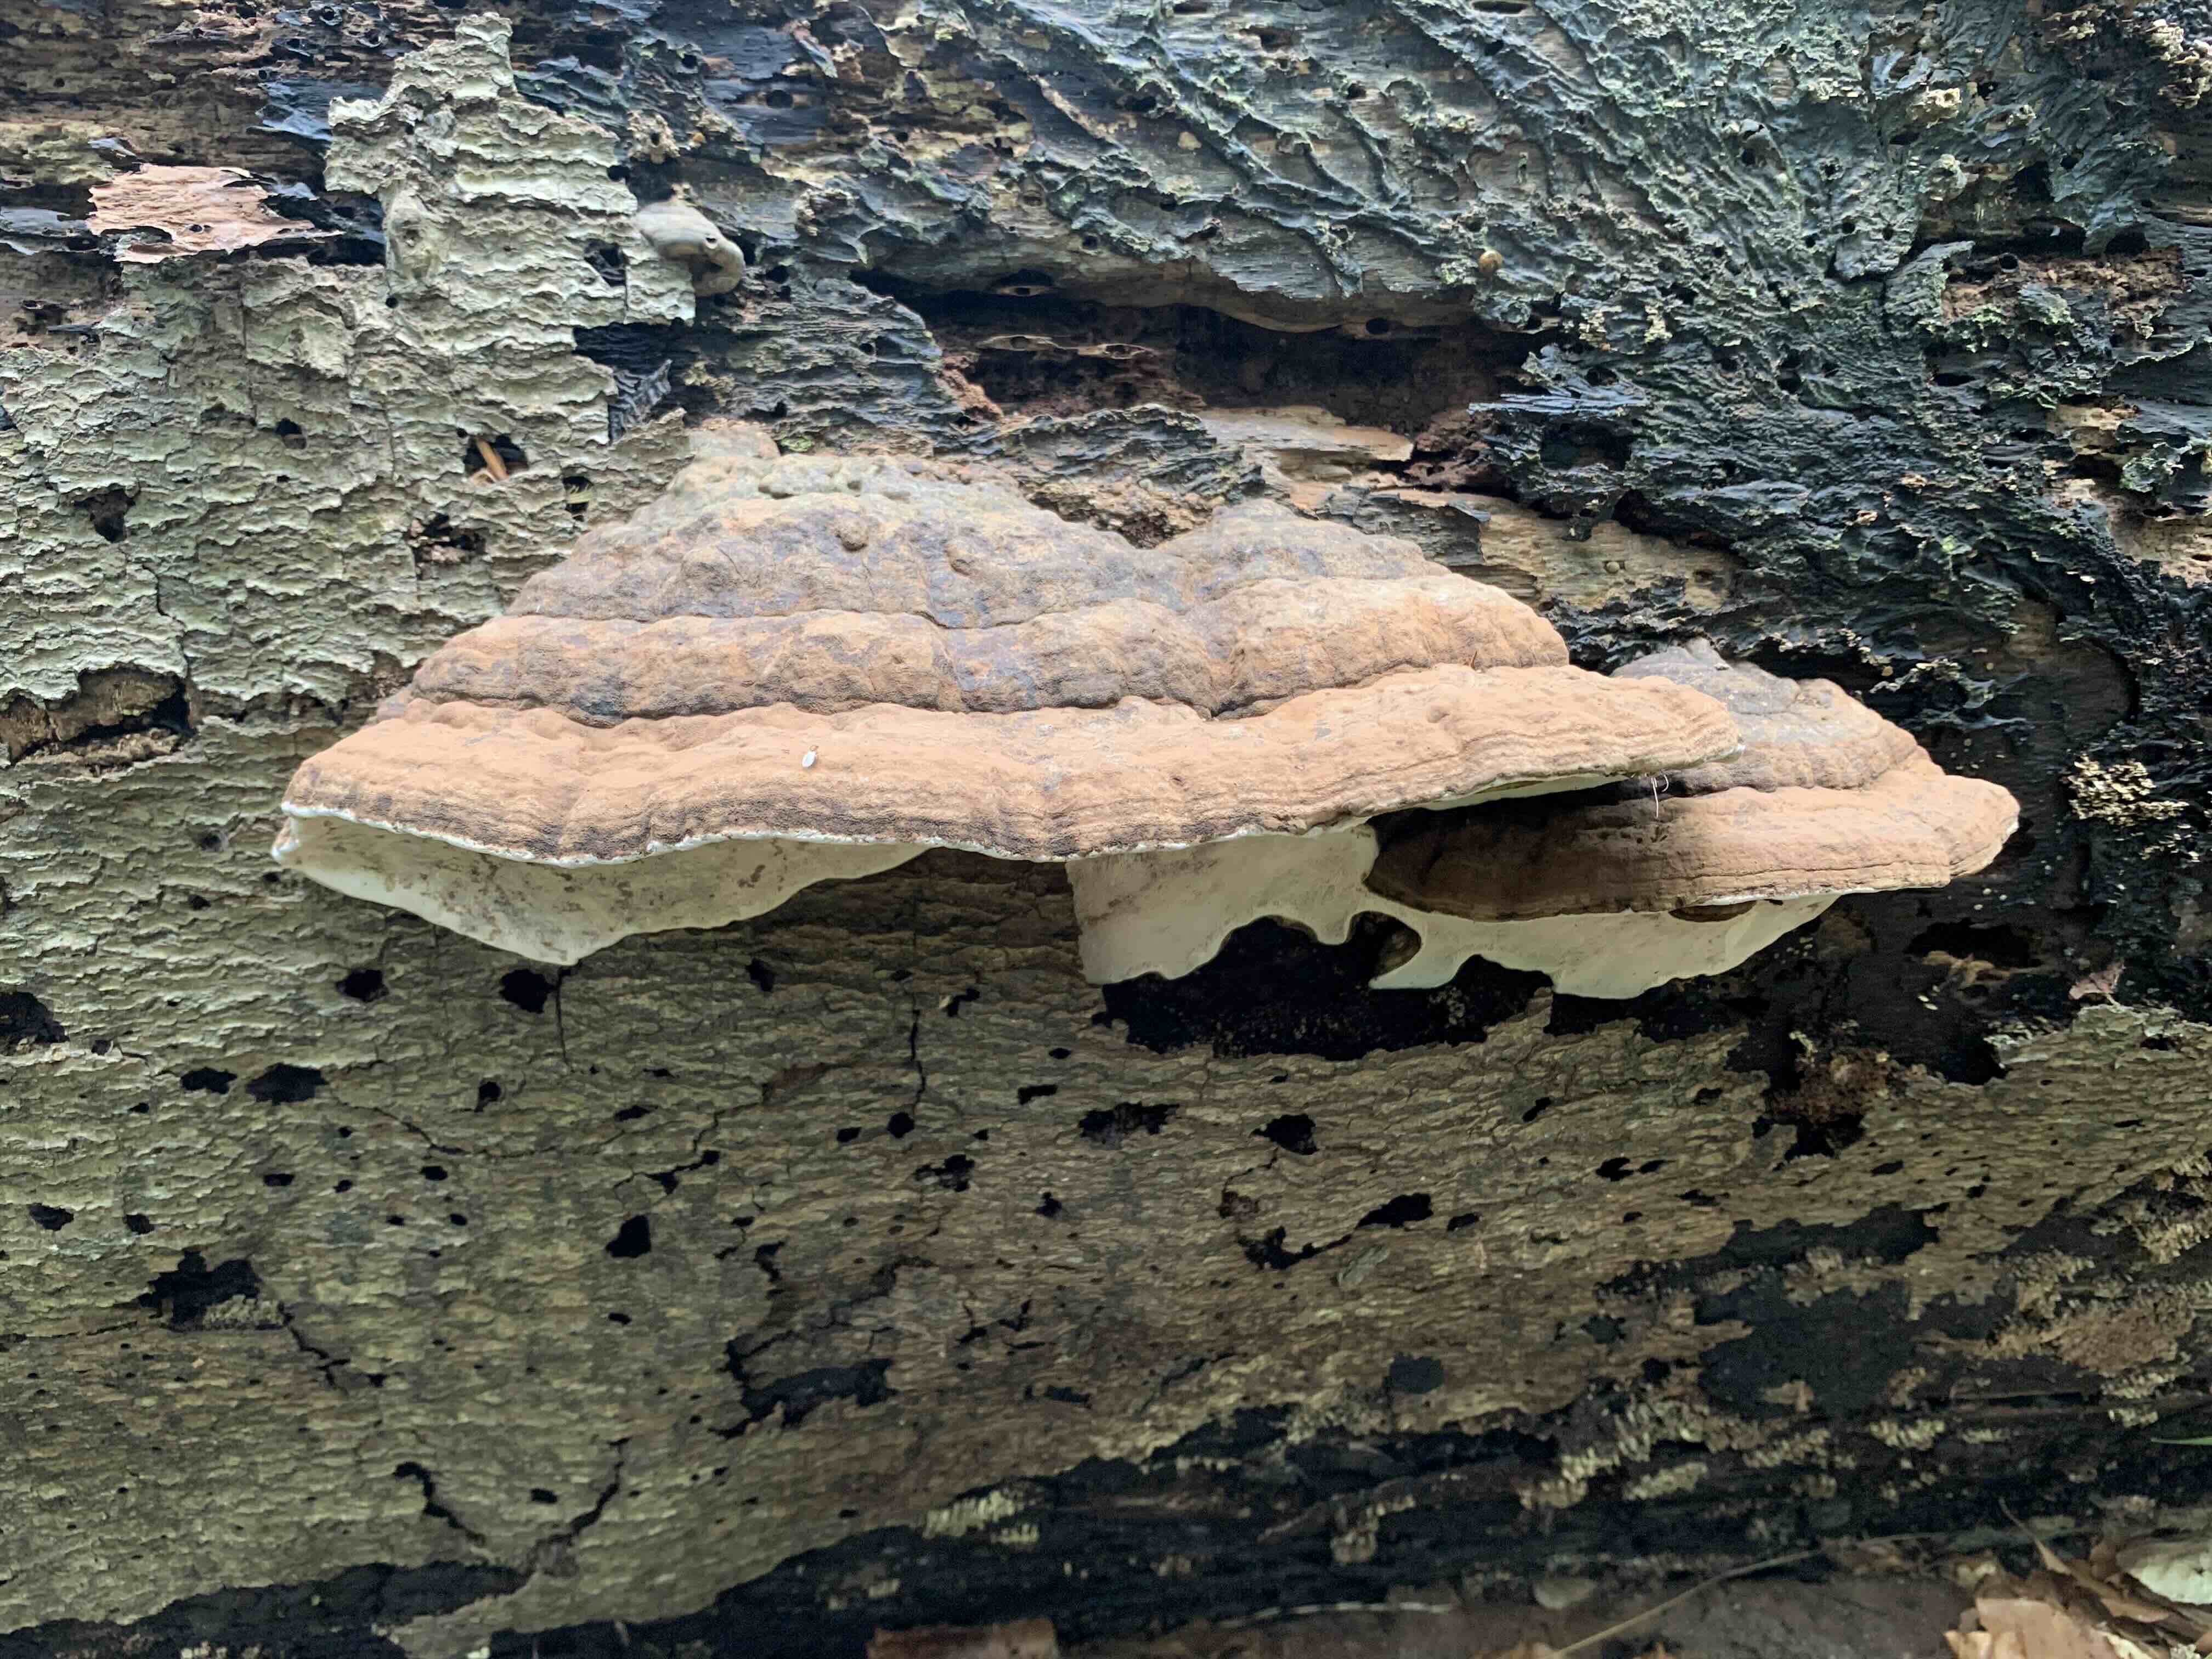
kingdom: Fungi
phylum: Basidiomycota
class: Agaricomycetes
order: Polyporales
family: Polyporaceae
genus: Ganoderma
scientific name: Ganoderma applanatum
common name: flad lakporesvamp
